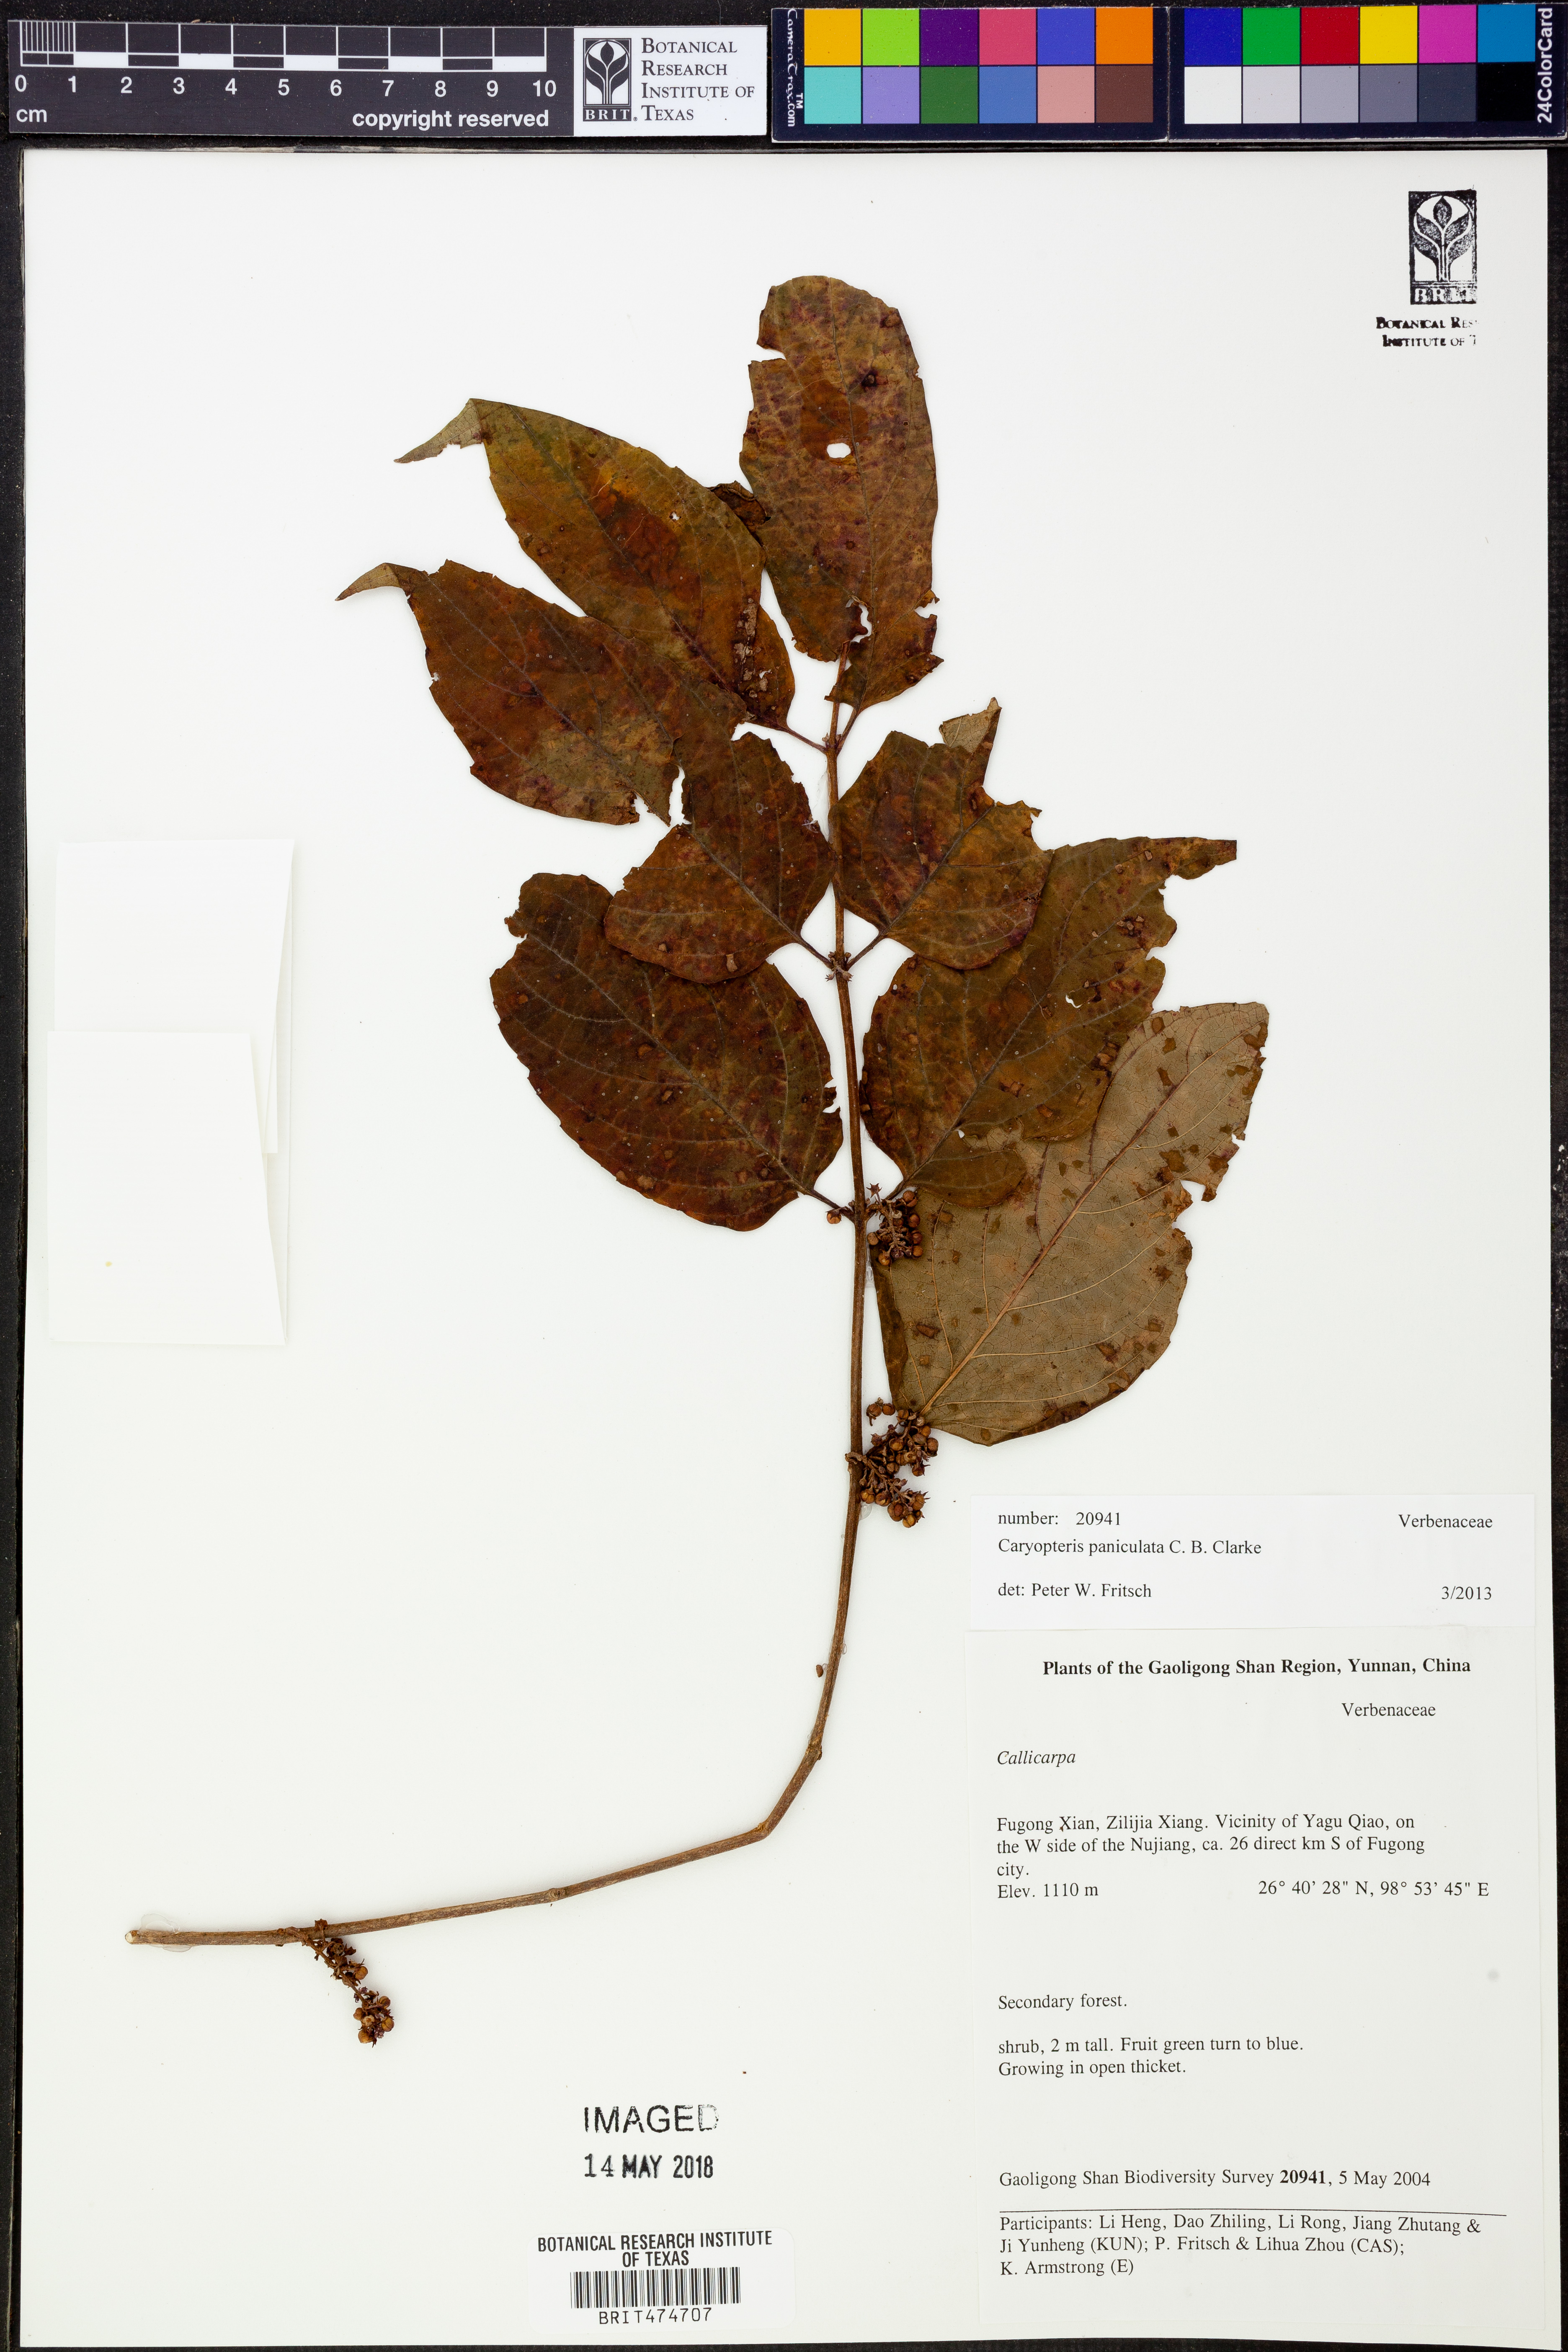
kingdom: Plantae
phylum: Tracheophyta
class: Magnoliopsida
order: Lamiales
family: Lamiaceae
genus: Pseudocaryopteris
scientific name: Pseudocaryopteris foetida
